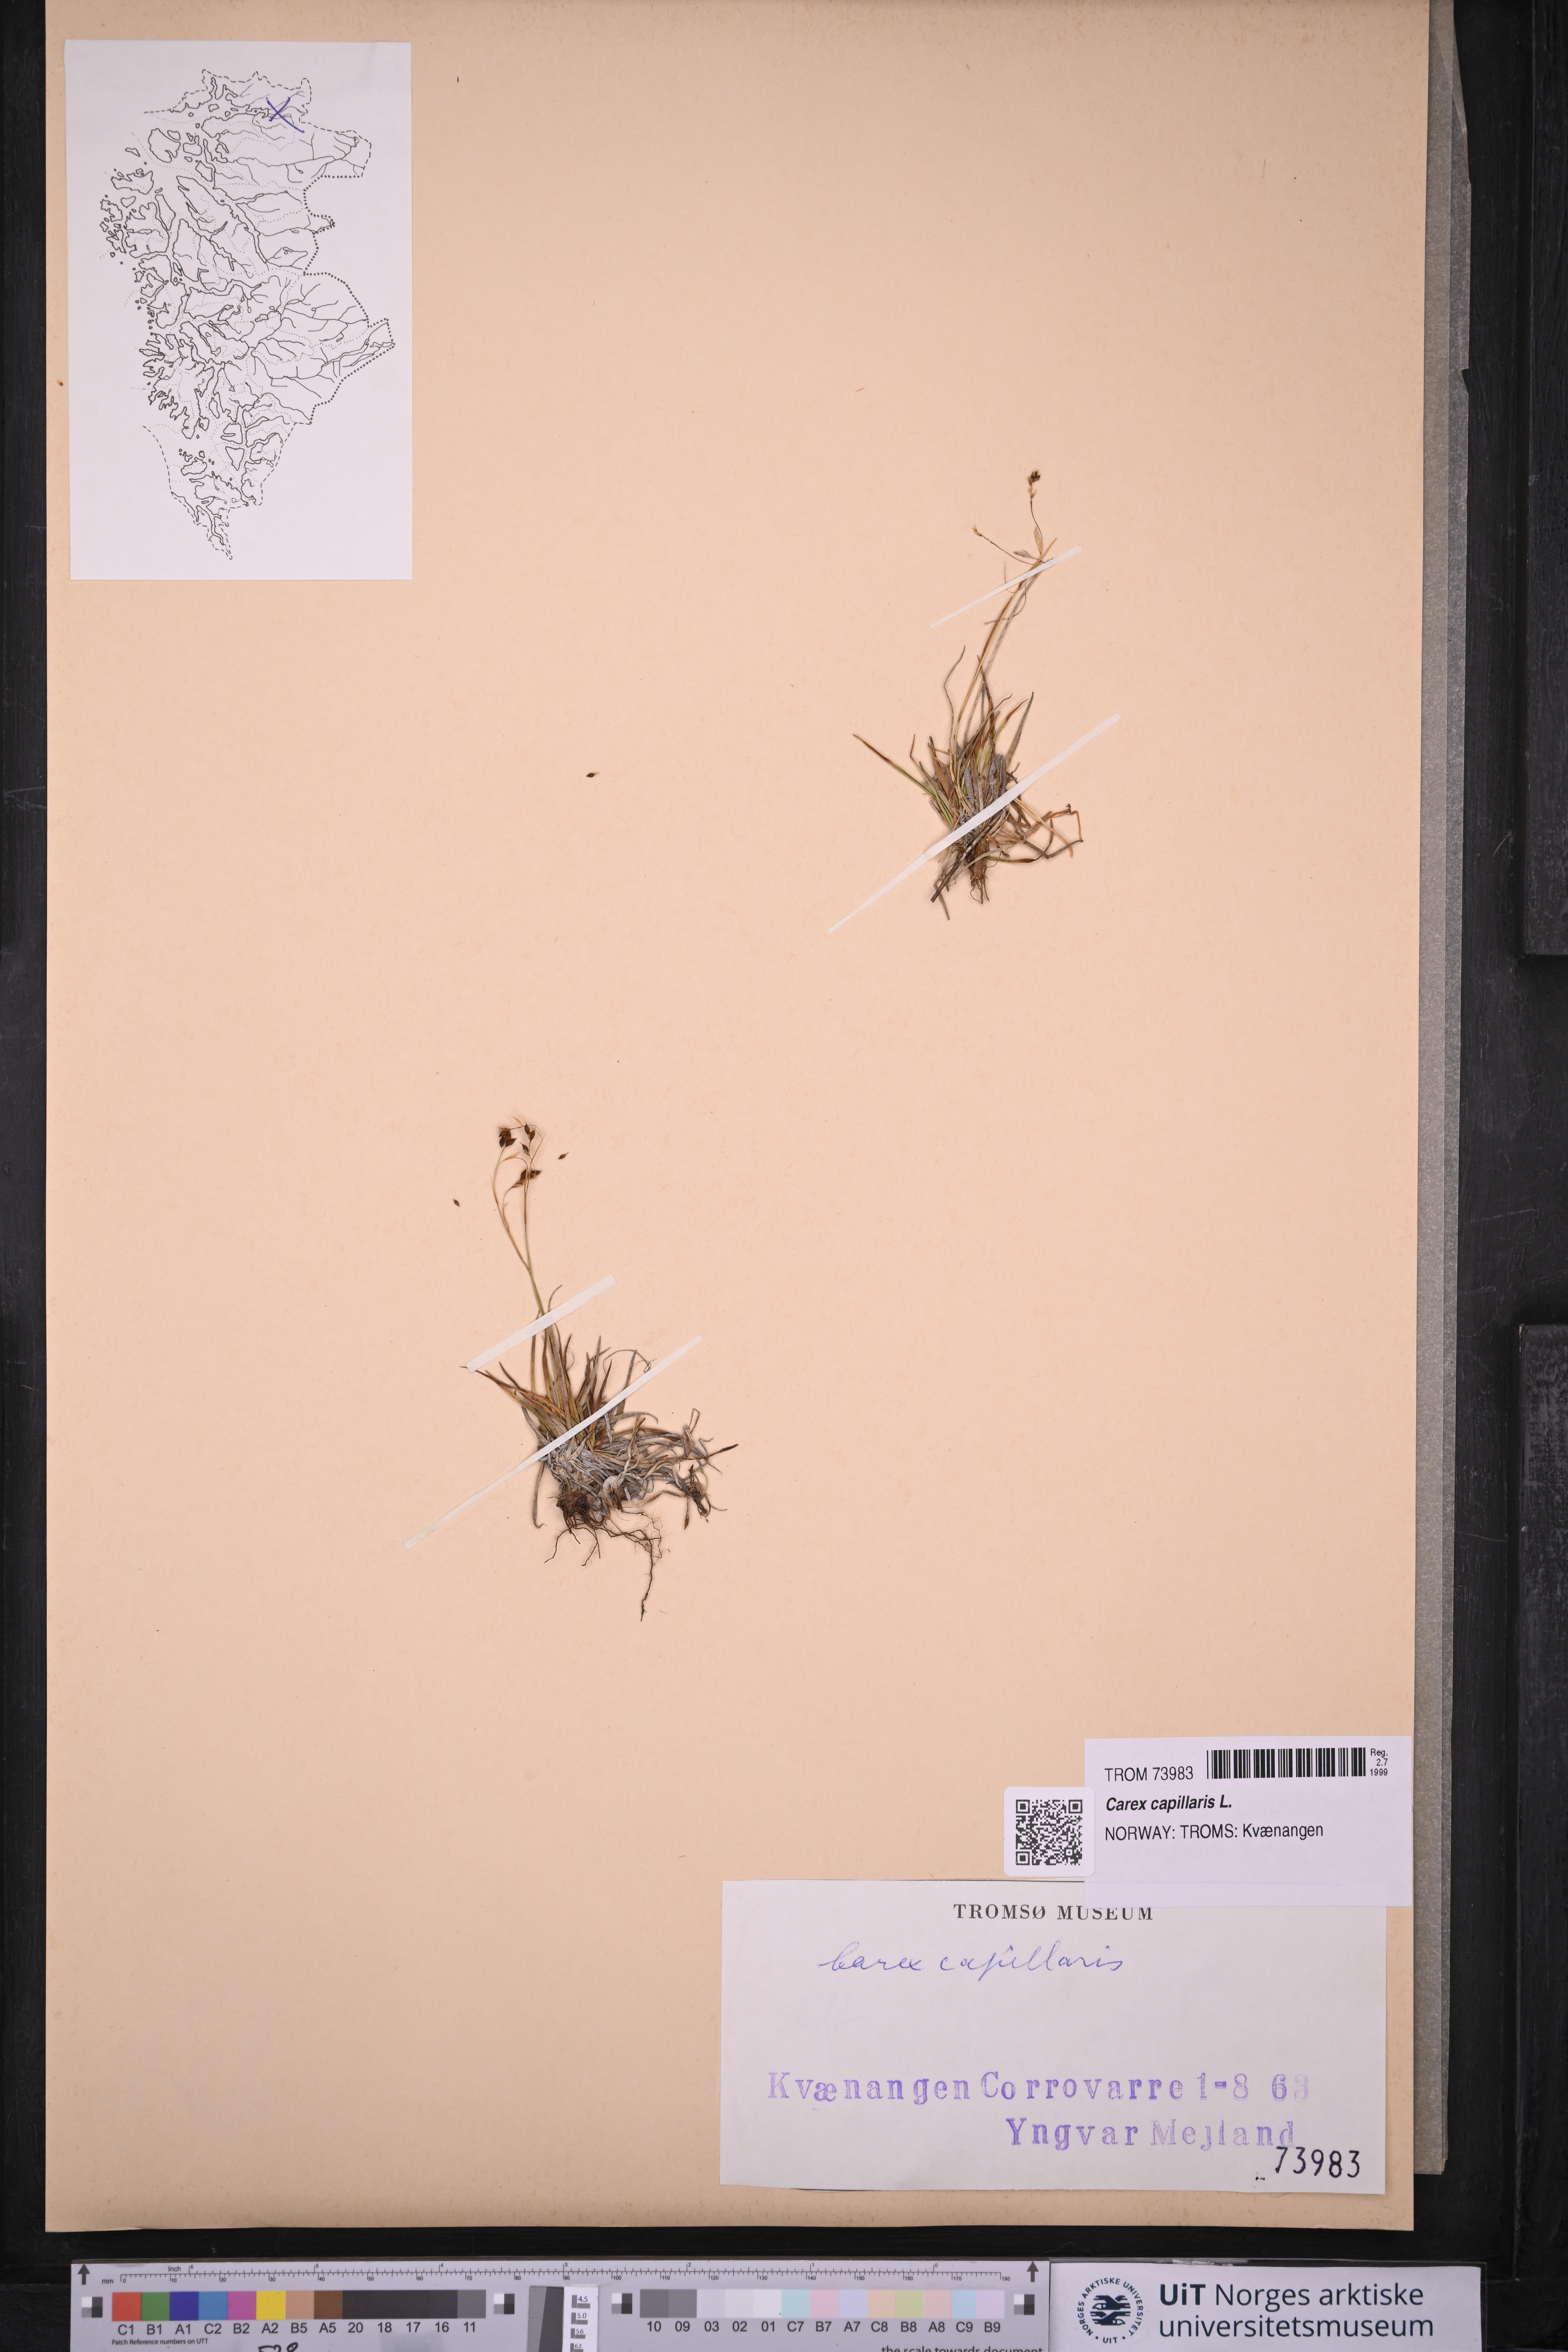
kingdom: Plantae
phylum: Tracheophyta
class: Liliopsida
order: Poales
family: Cyperaceae
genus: Carex
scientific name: Carex capillaris
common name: Hair sedge
